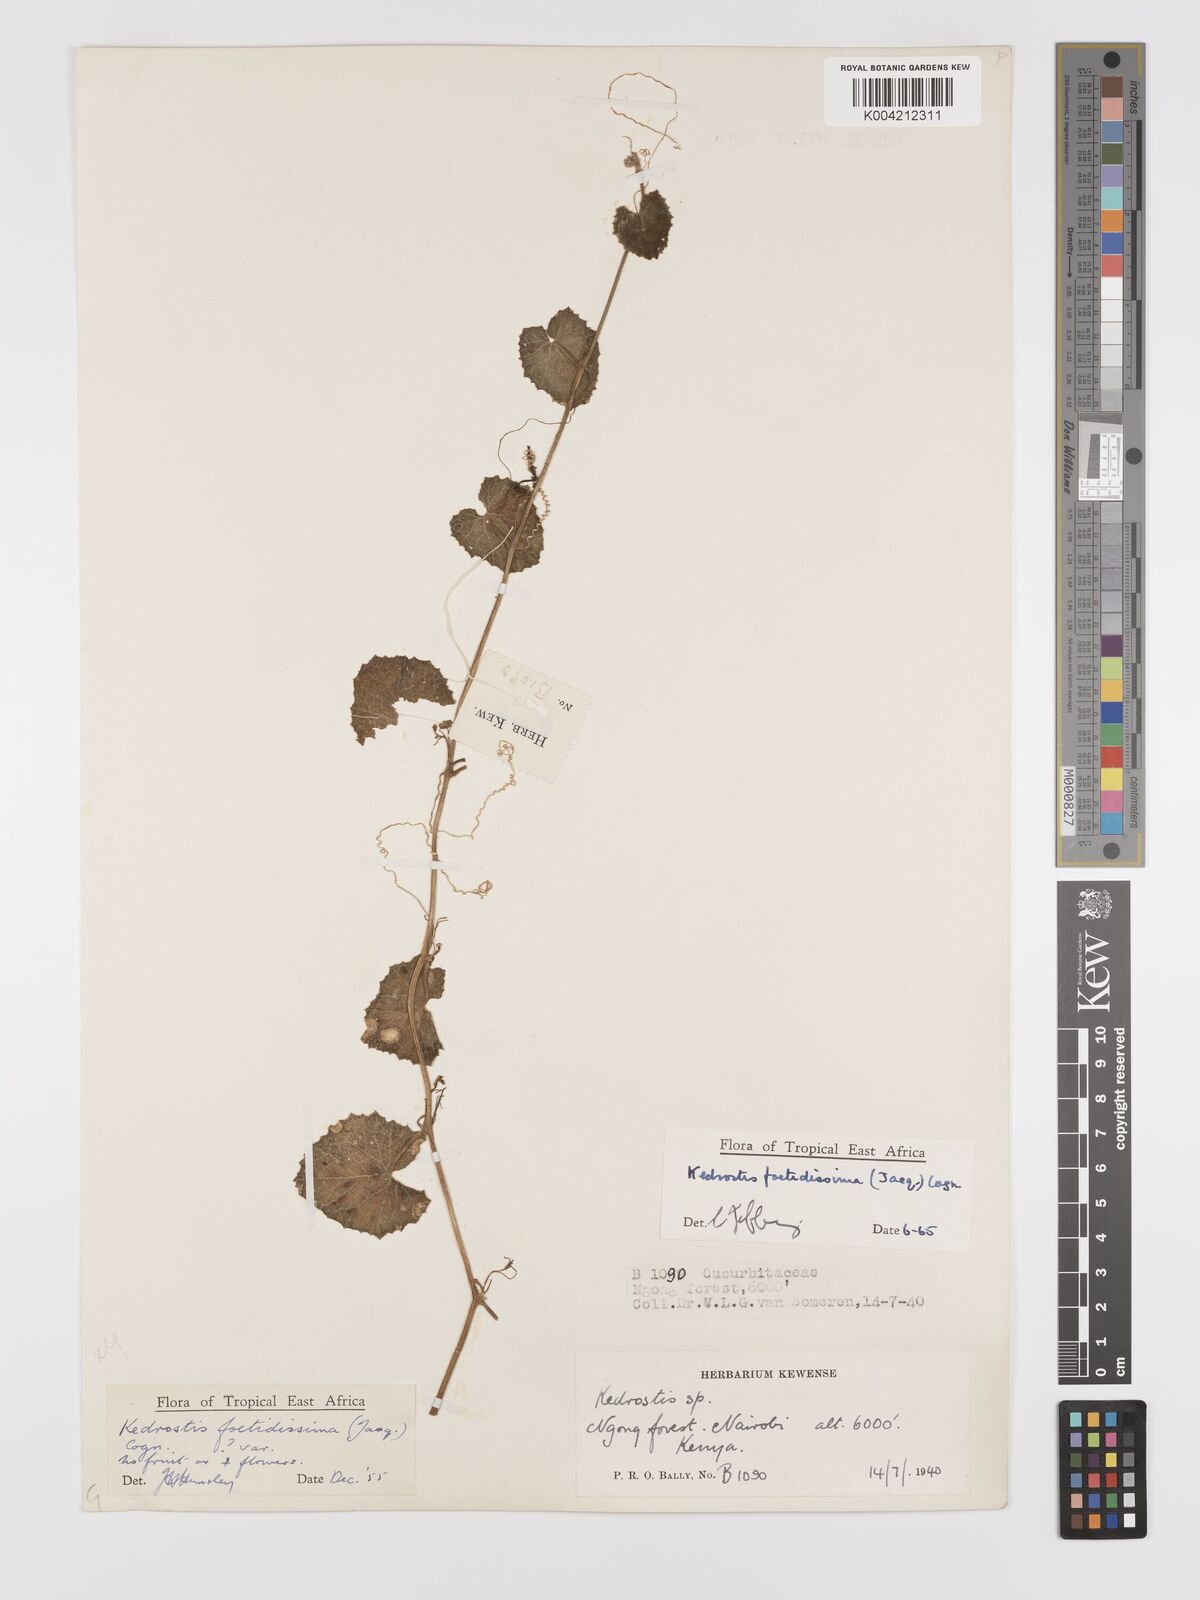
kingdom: Plantae
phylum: Tracheophyta
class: Magnoliopsida
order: Cucurbitales
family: Cucurbitaceae
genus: Kedrostis
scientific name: Kedrostis foetidissima
